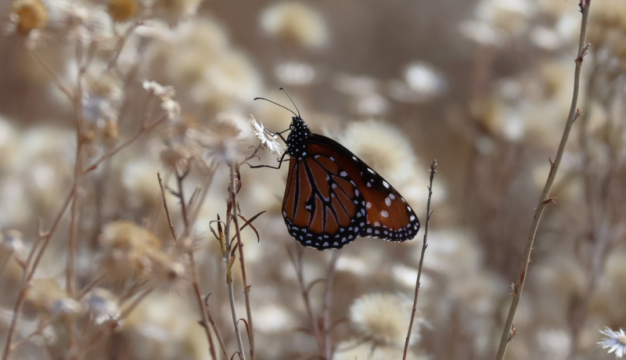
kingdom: Animalia
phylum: Arthropoda
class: Insecta
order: Lepidoptera
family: Nymphalidae
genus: Danaus
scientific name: Danaus gilippus
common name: Queen
